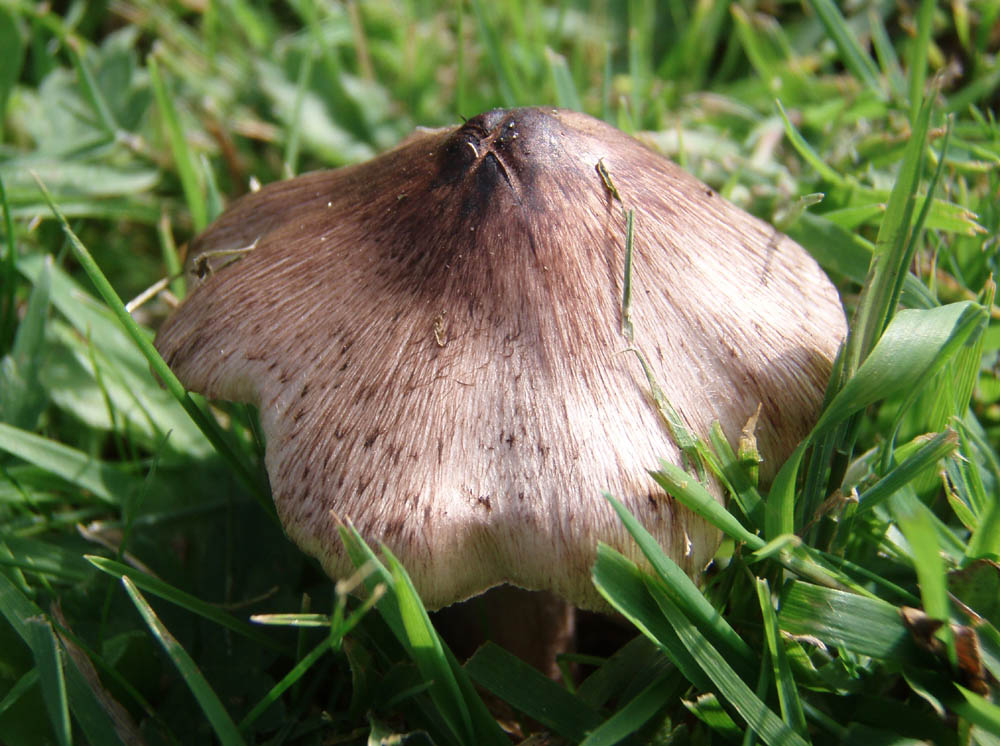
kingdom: Fungi
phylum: Basidiomycota
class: Agaricomycetes
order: Agaricales
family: Inocybaceae
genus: Inosperma
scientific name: Inosperma adaequatum
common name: vinrød trævlhat
